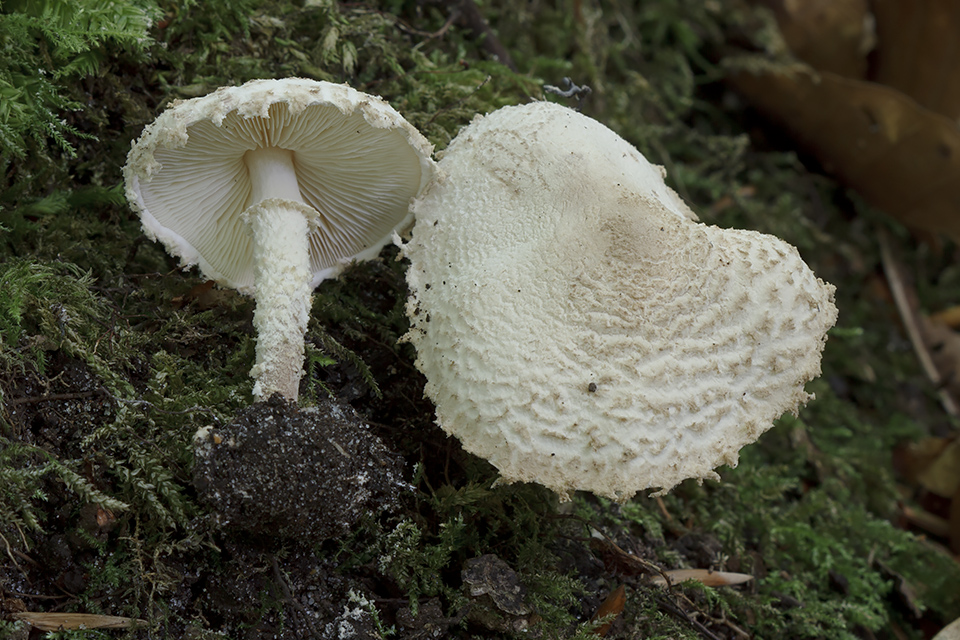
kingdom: Fungi
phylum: Basidiomycota
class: Agaricomycetes
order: Agaricales
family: Agaricaceae
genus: Cystolepiota
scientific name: Cystolepiota adulterina
